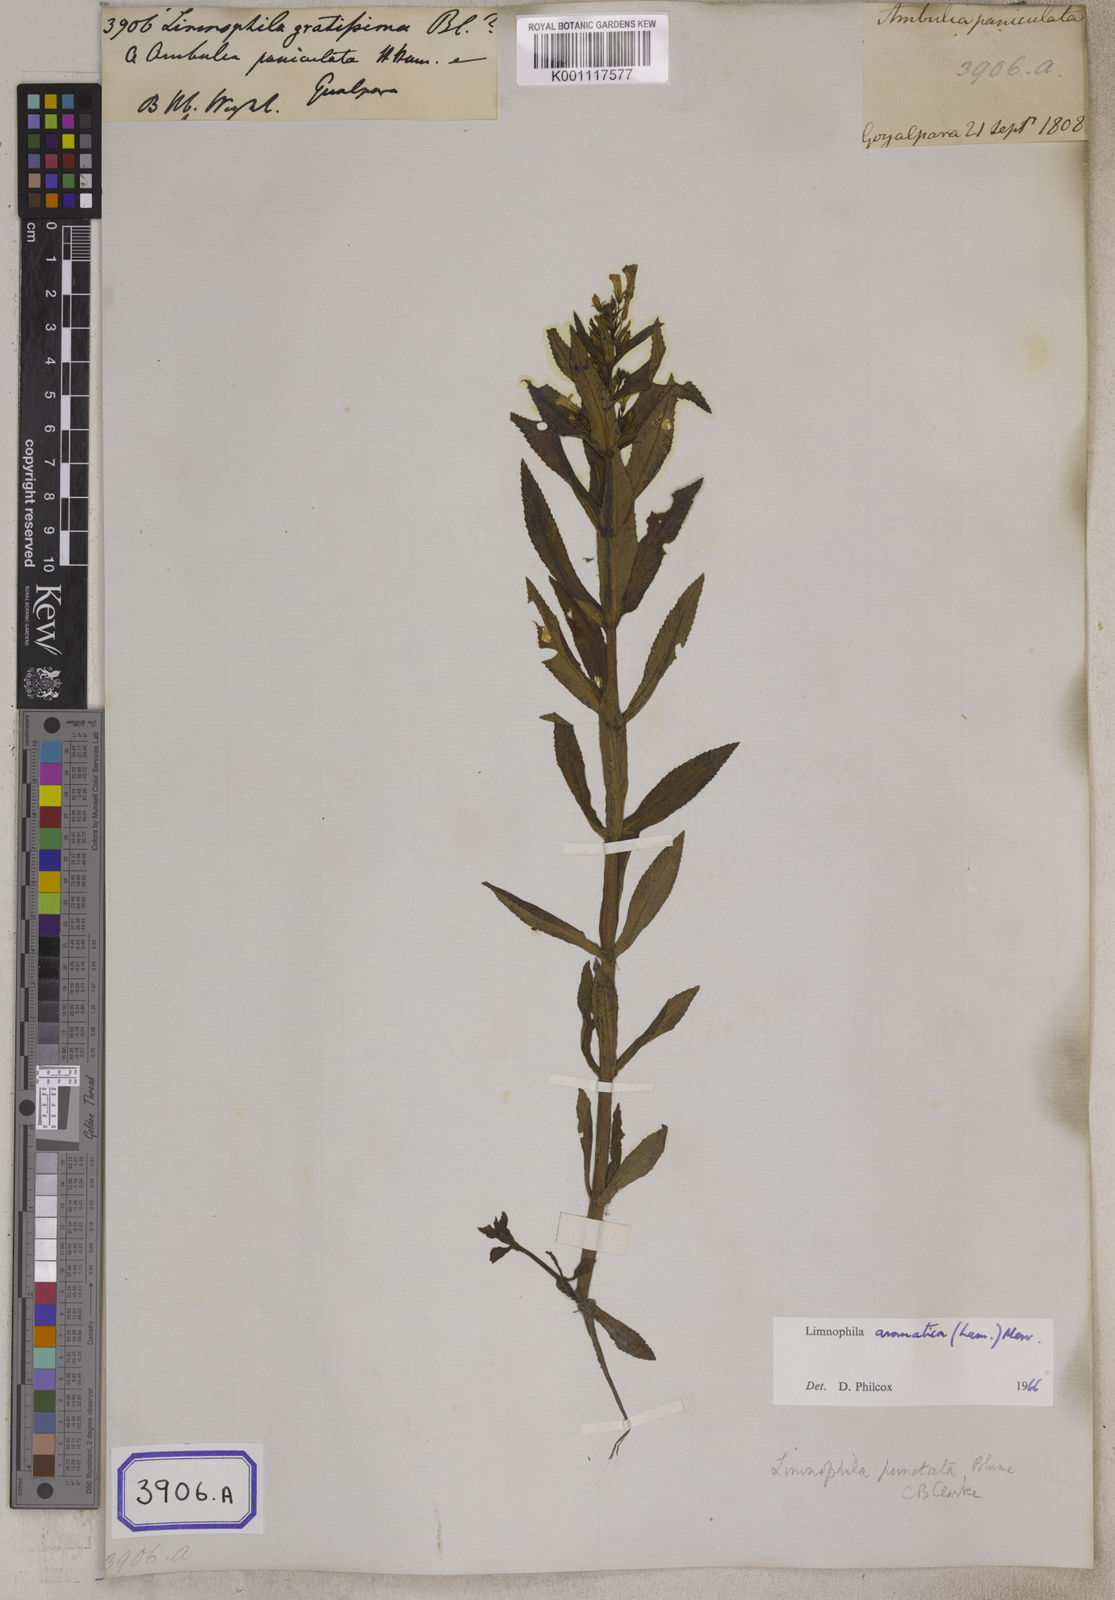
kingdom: Plantae
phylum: Tracheophyta
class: Magnoliopsida
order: Lamiales
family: Plantaginaceae
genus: Limnophila
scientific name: Limnophila aromatica
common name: Finger grass
